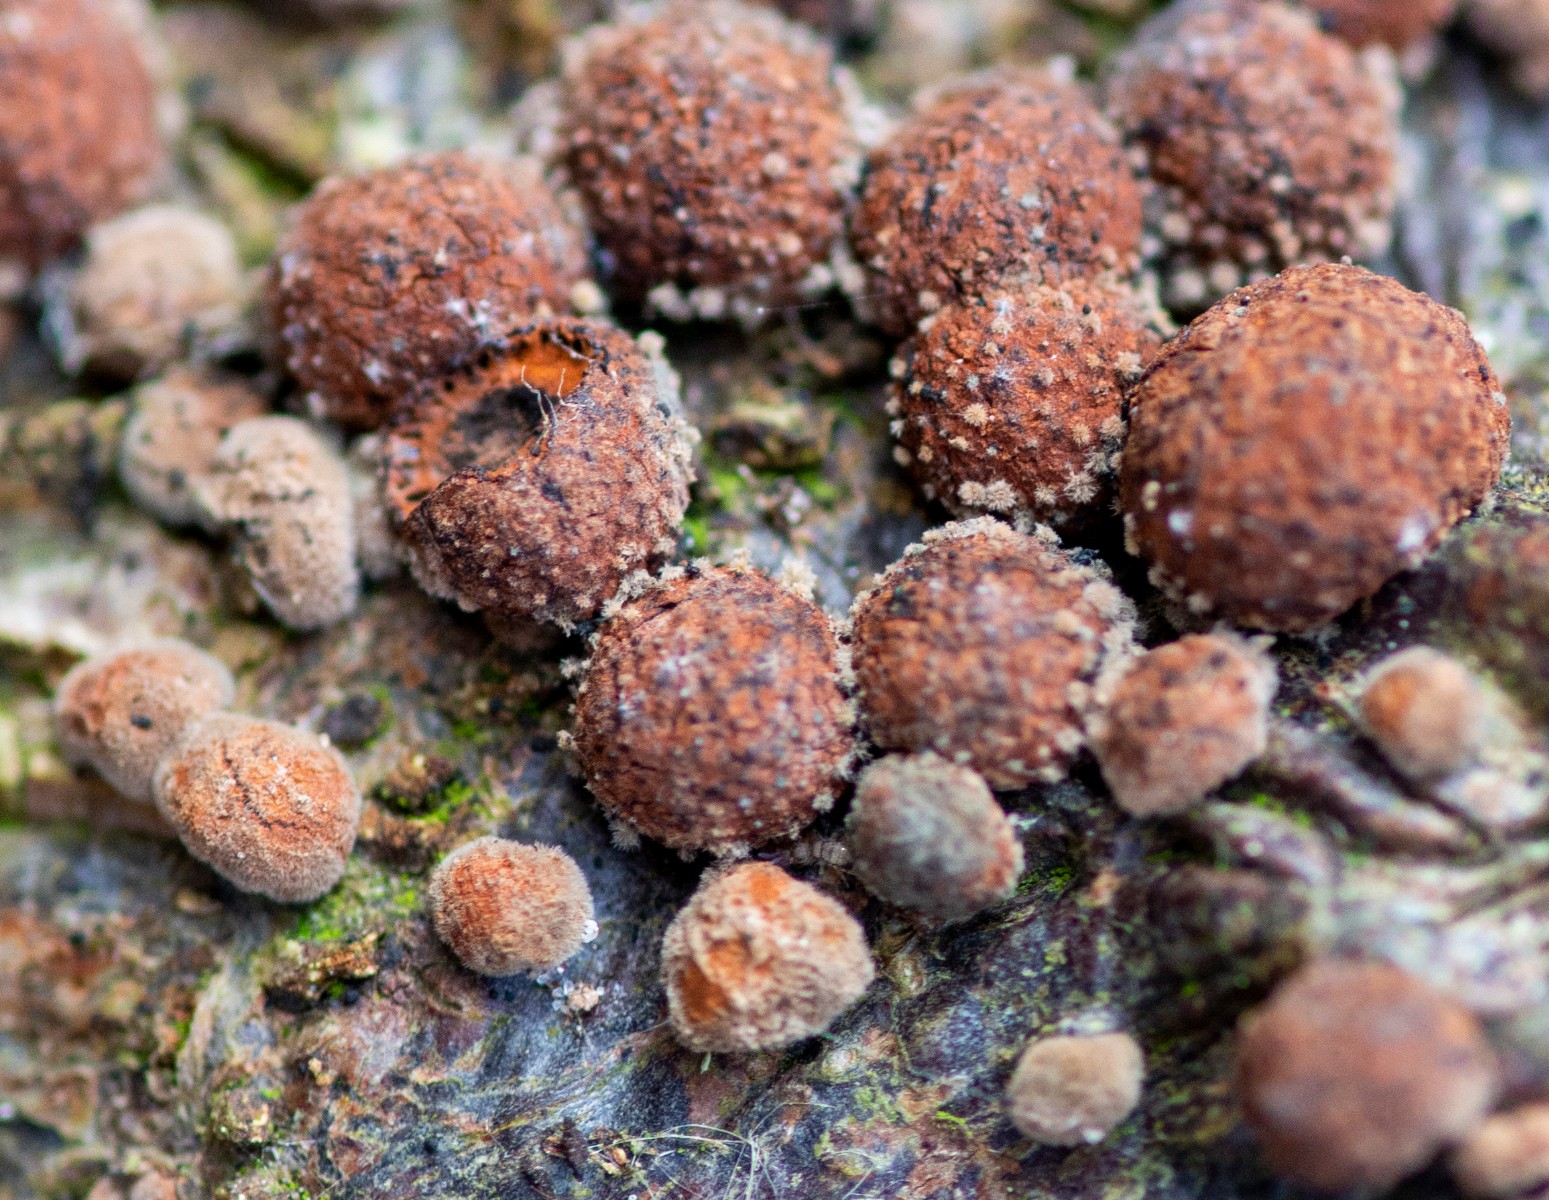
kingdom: Fungi
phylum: Ascomycota
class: Sordariomycetes
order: Xylariales
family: Hypoxylaceae
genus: Hypoxylon
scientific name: Hypoxylon fragiforme
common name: kuljordbær
